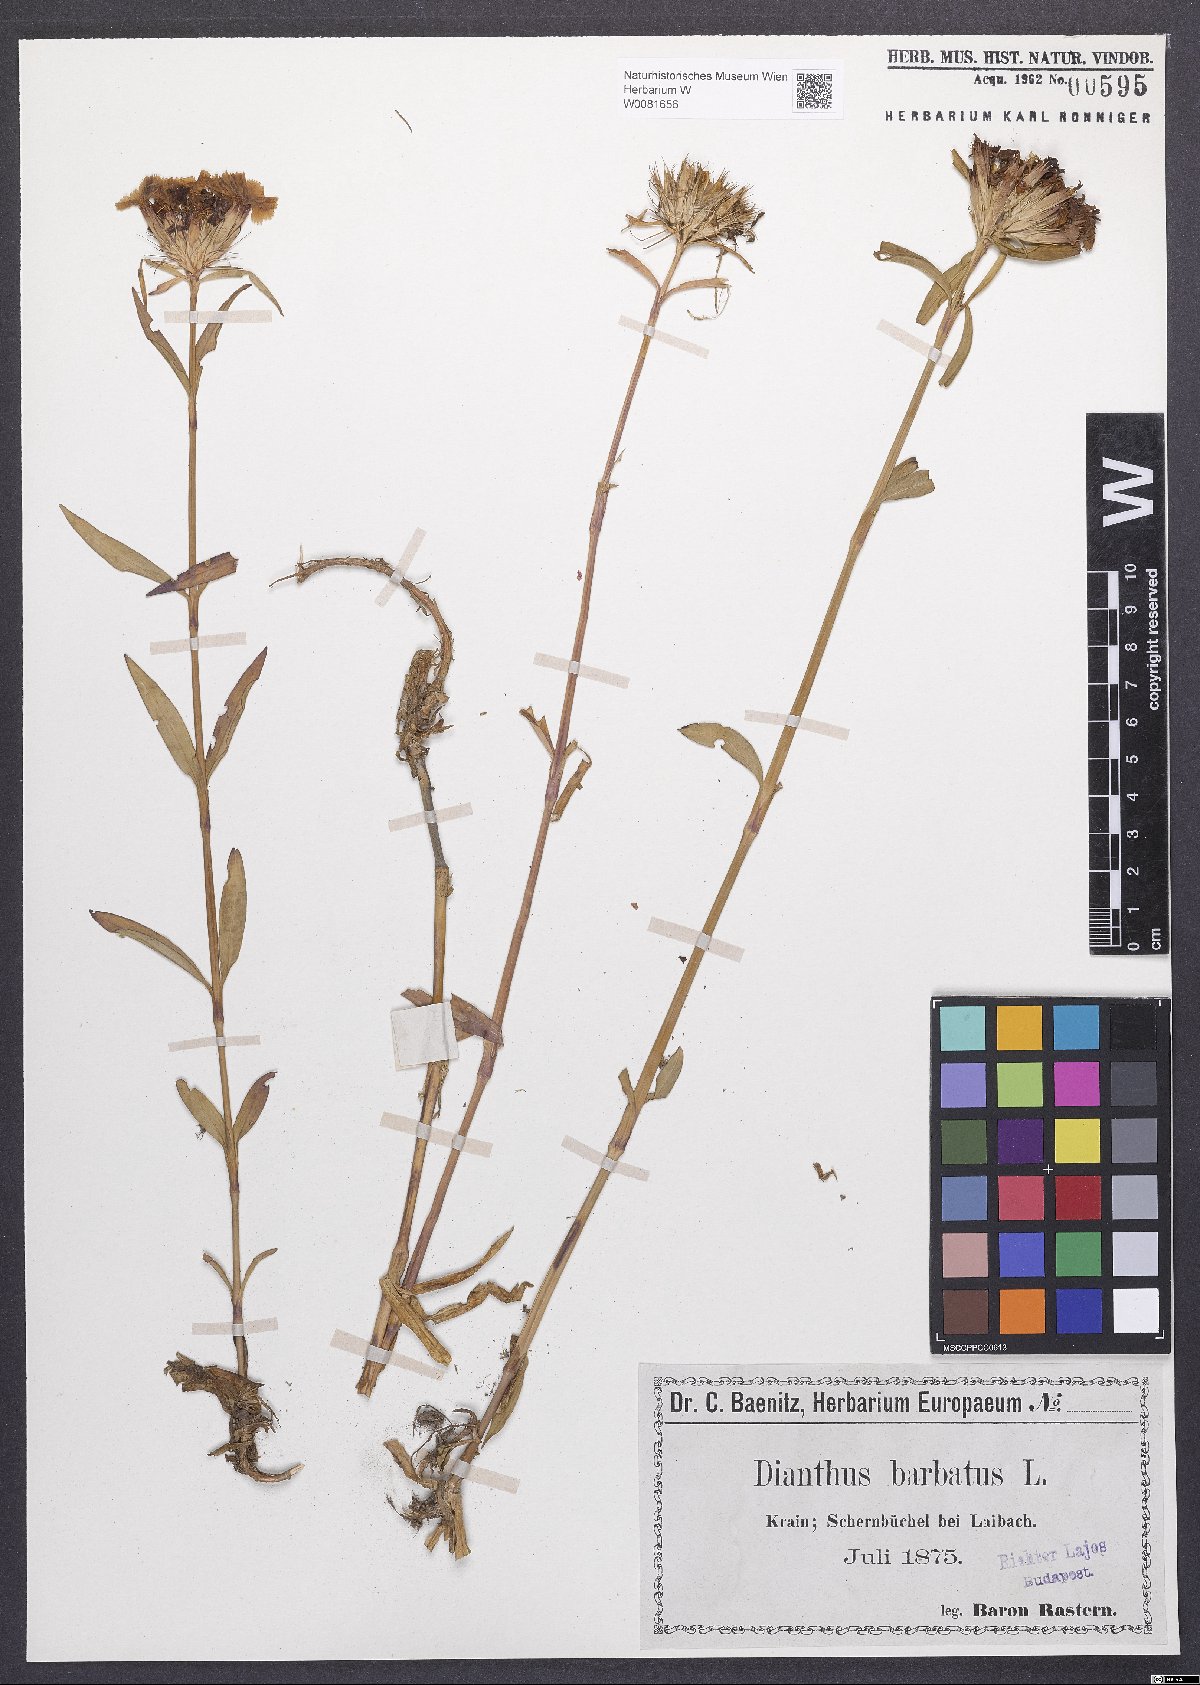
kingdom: Plantae
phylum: Tracheophyta
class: Magnoliopsida
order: Caryophyllales
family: Caryophyllaceae
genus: Dianthus
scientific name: Dianthus barbatus
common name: Sweet-william
